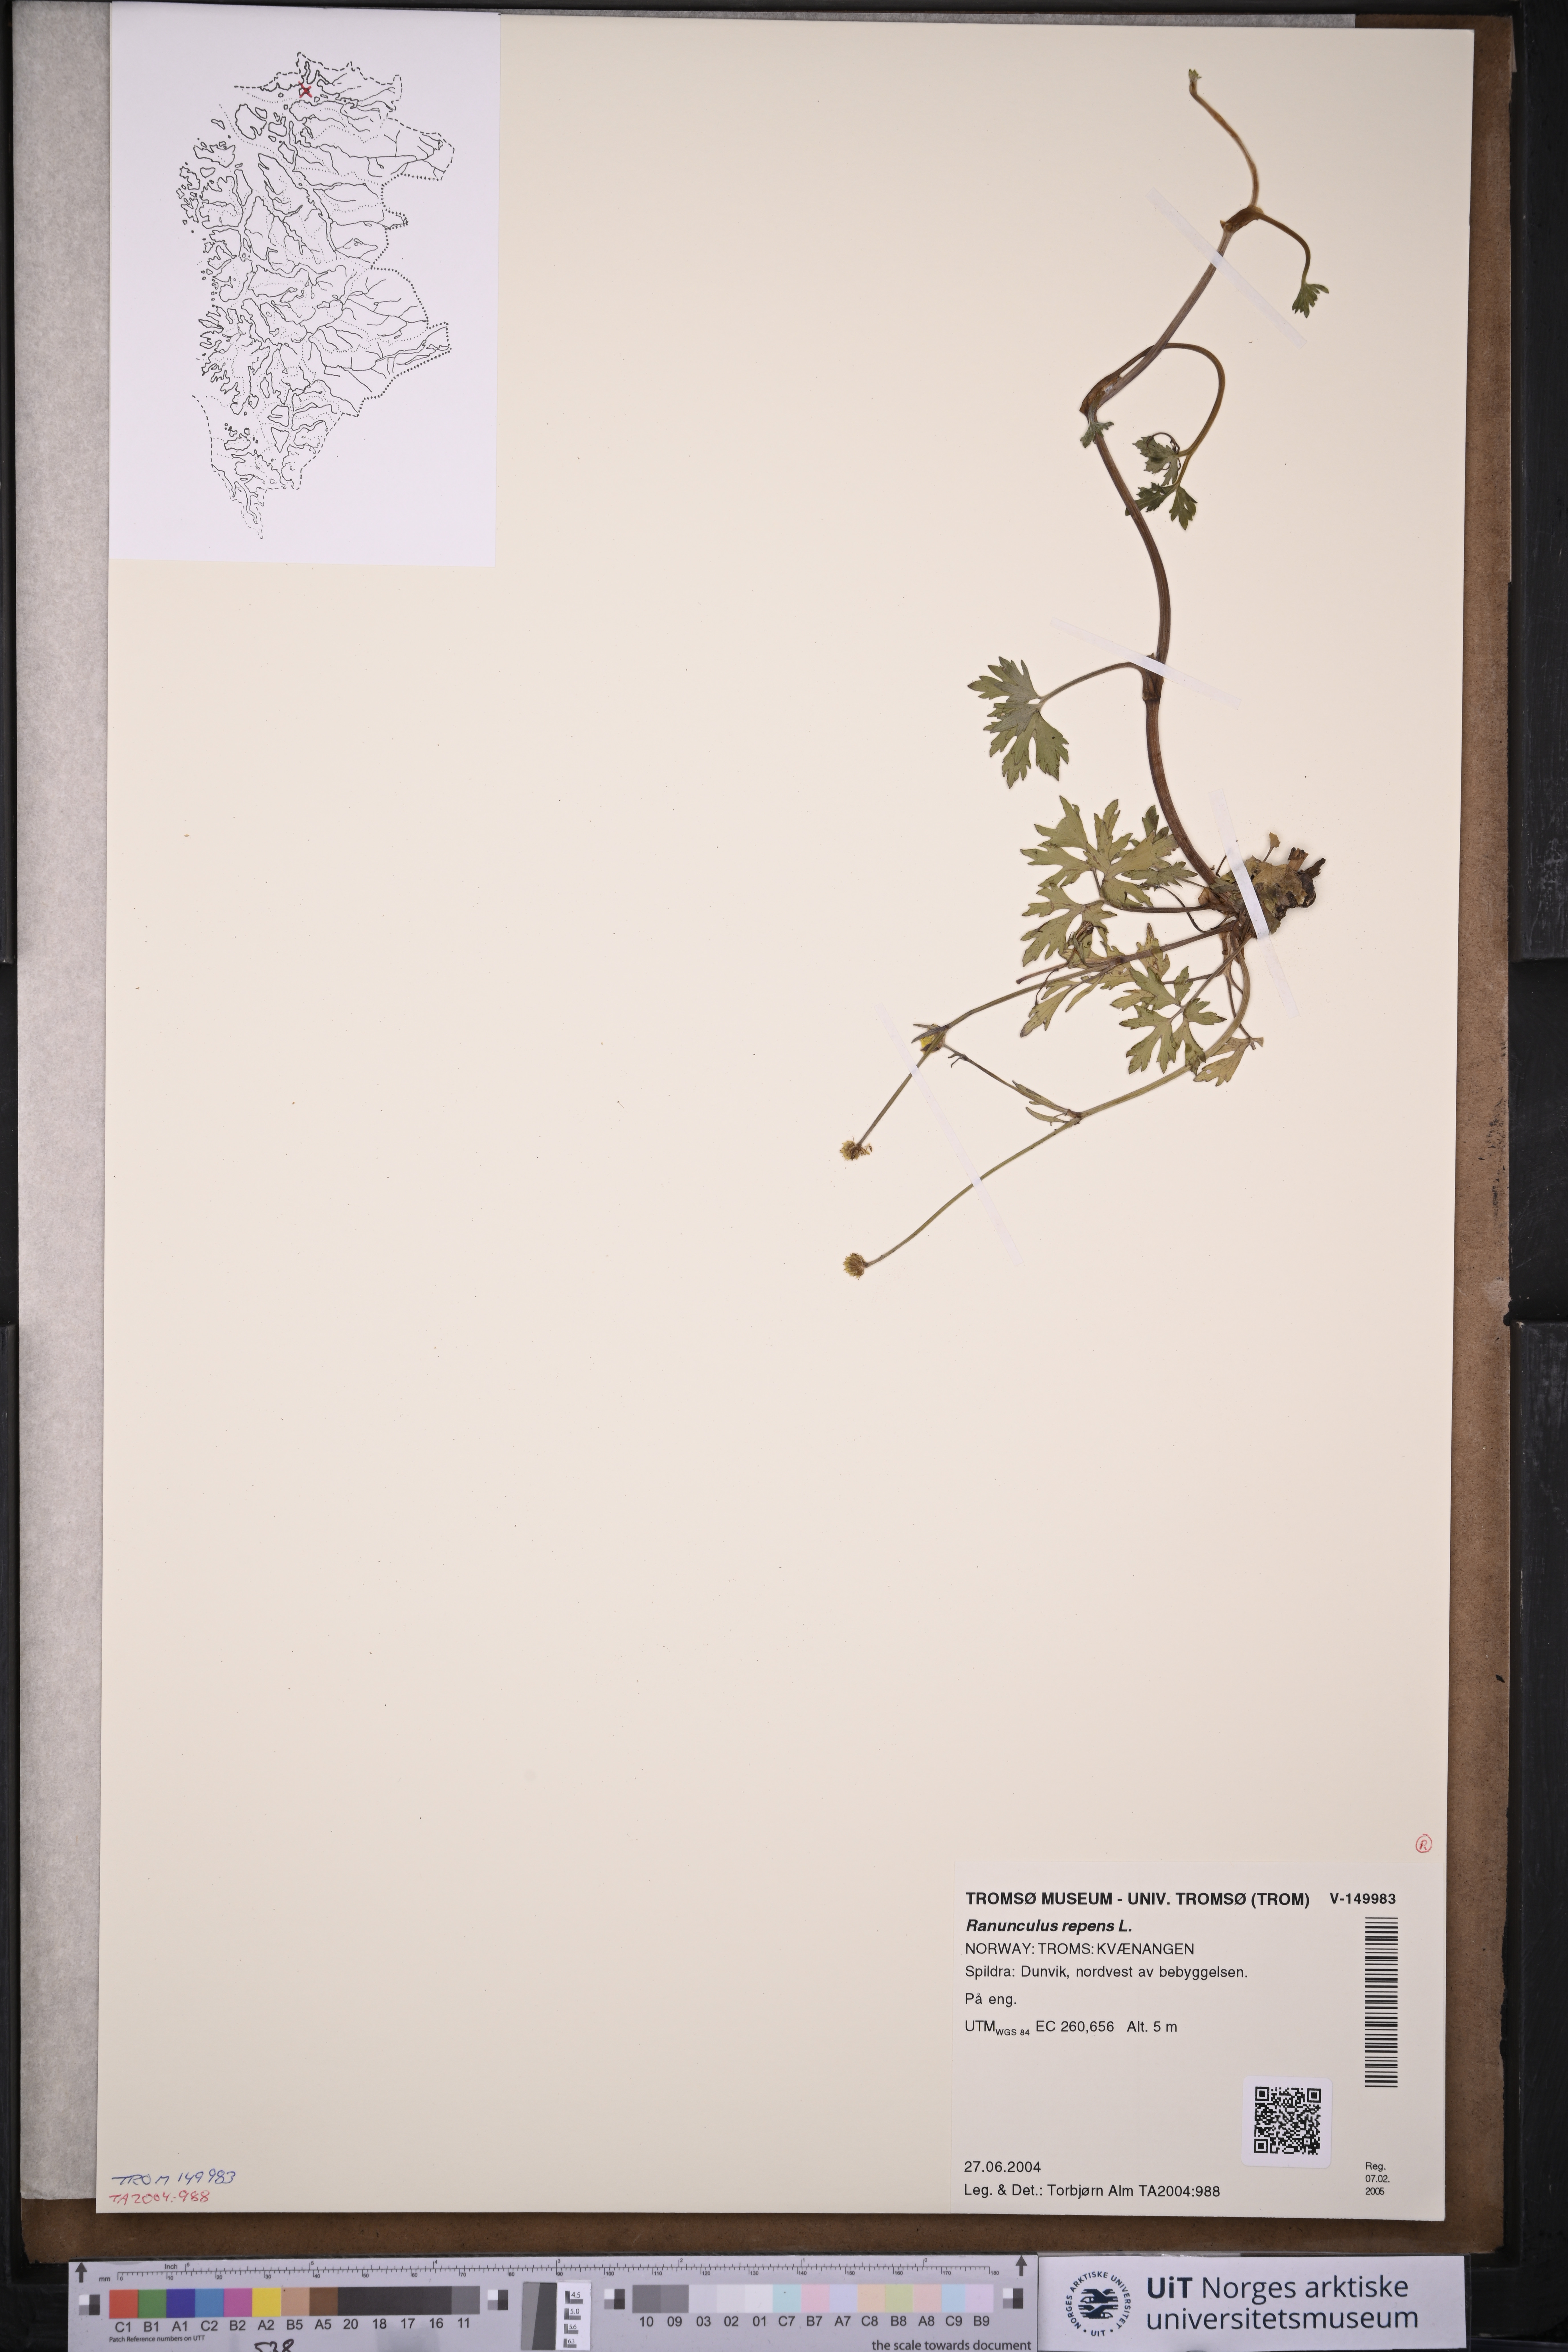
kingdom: Plantae
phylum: Tracheophyta
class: Magnoliopsida
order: Ranunculales
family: Ranunculaceae
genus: Ranunculus
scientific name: Ranunculus repens
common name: Creeping buttercup
